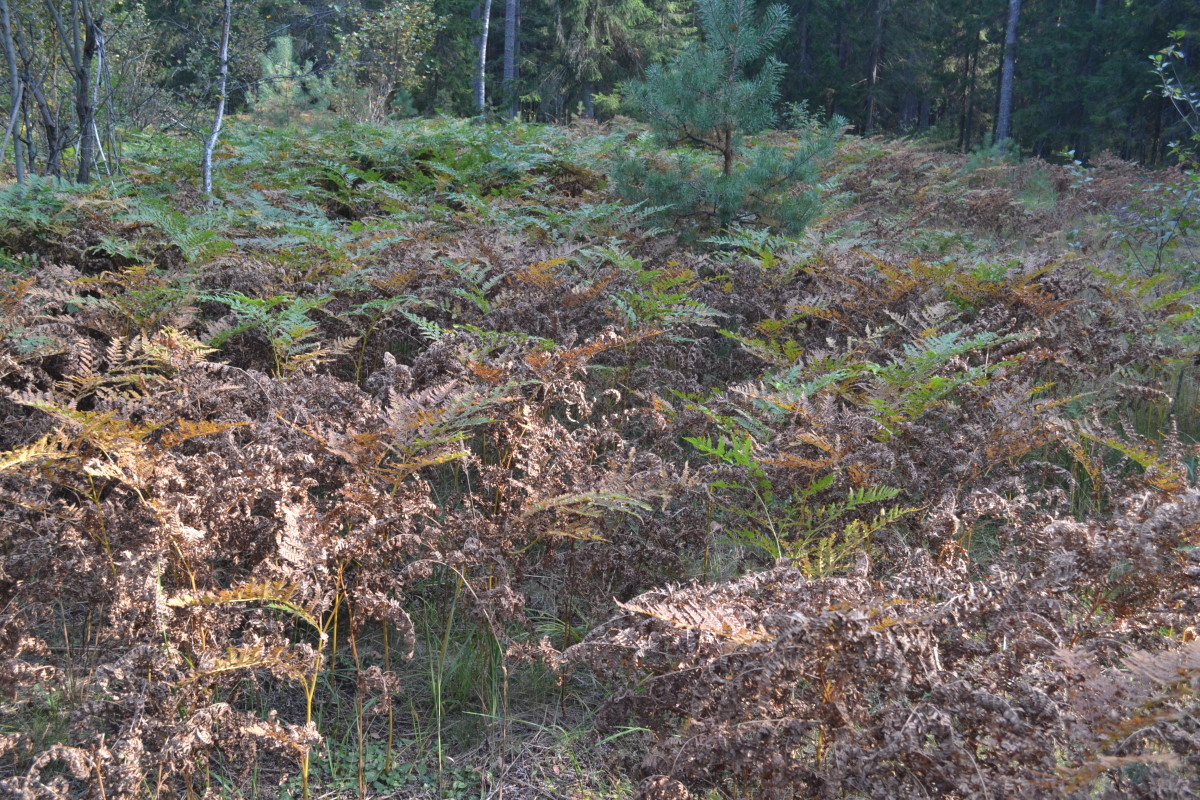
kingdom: Plantae
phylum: Tracheophyta
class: Polypodiopsida
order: Polypodiales
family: Dennstaedtiaceae
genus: Pteridium
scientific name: Pteridium aquilinum
